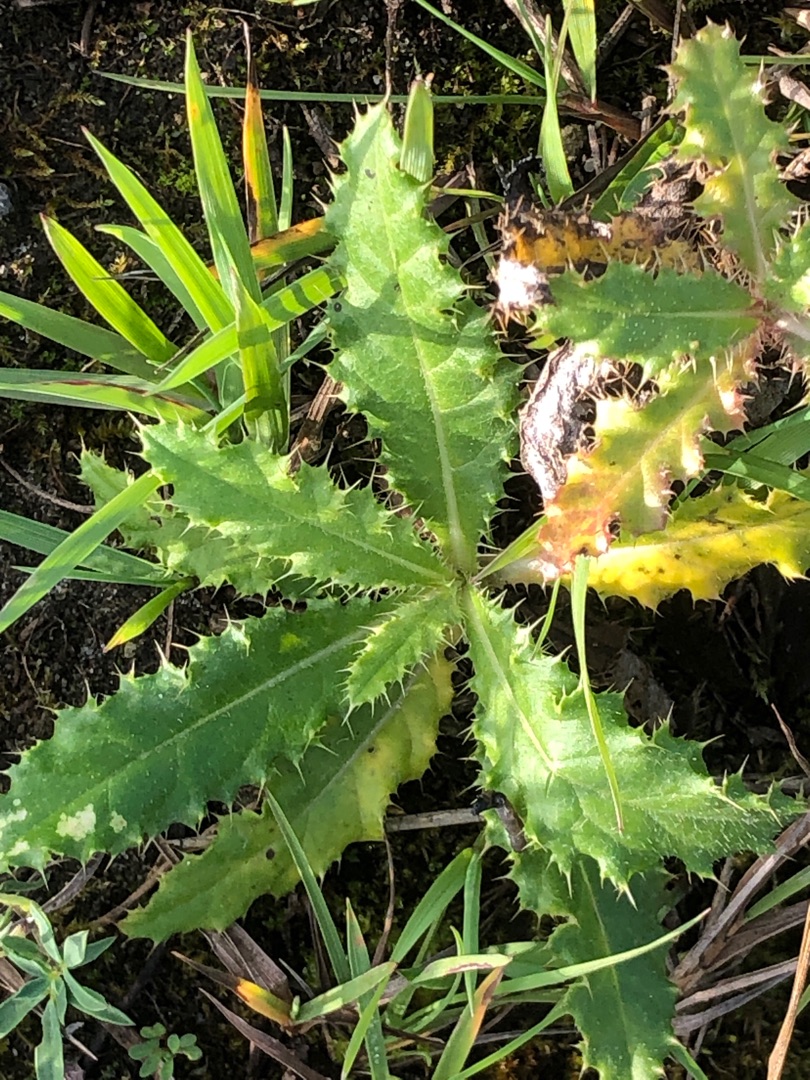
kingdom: Plantae
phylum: Tracheophyta
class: Magnoliopsida
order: Asterales
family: Asteraceae
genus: Cirsium
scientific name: Cirsium arvense
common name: Ager-tidsel
